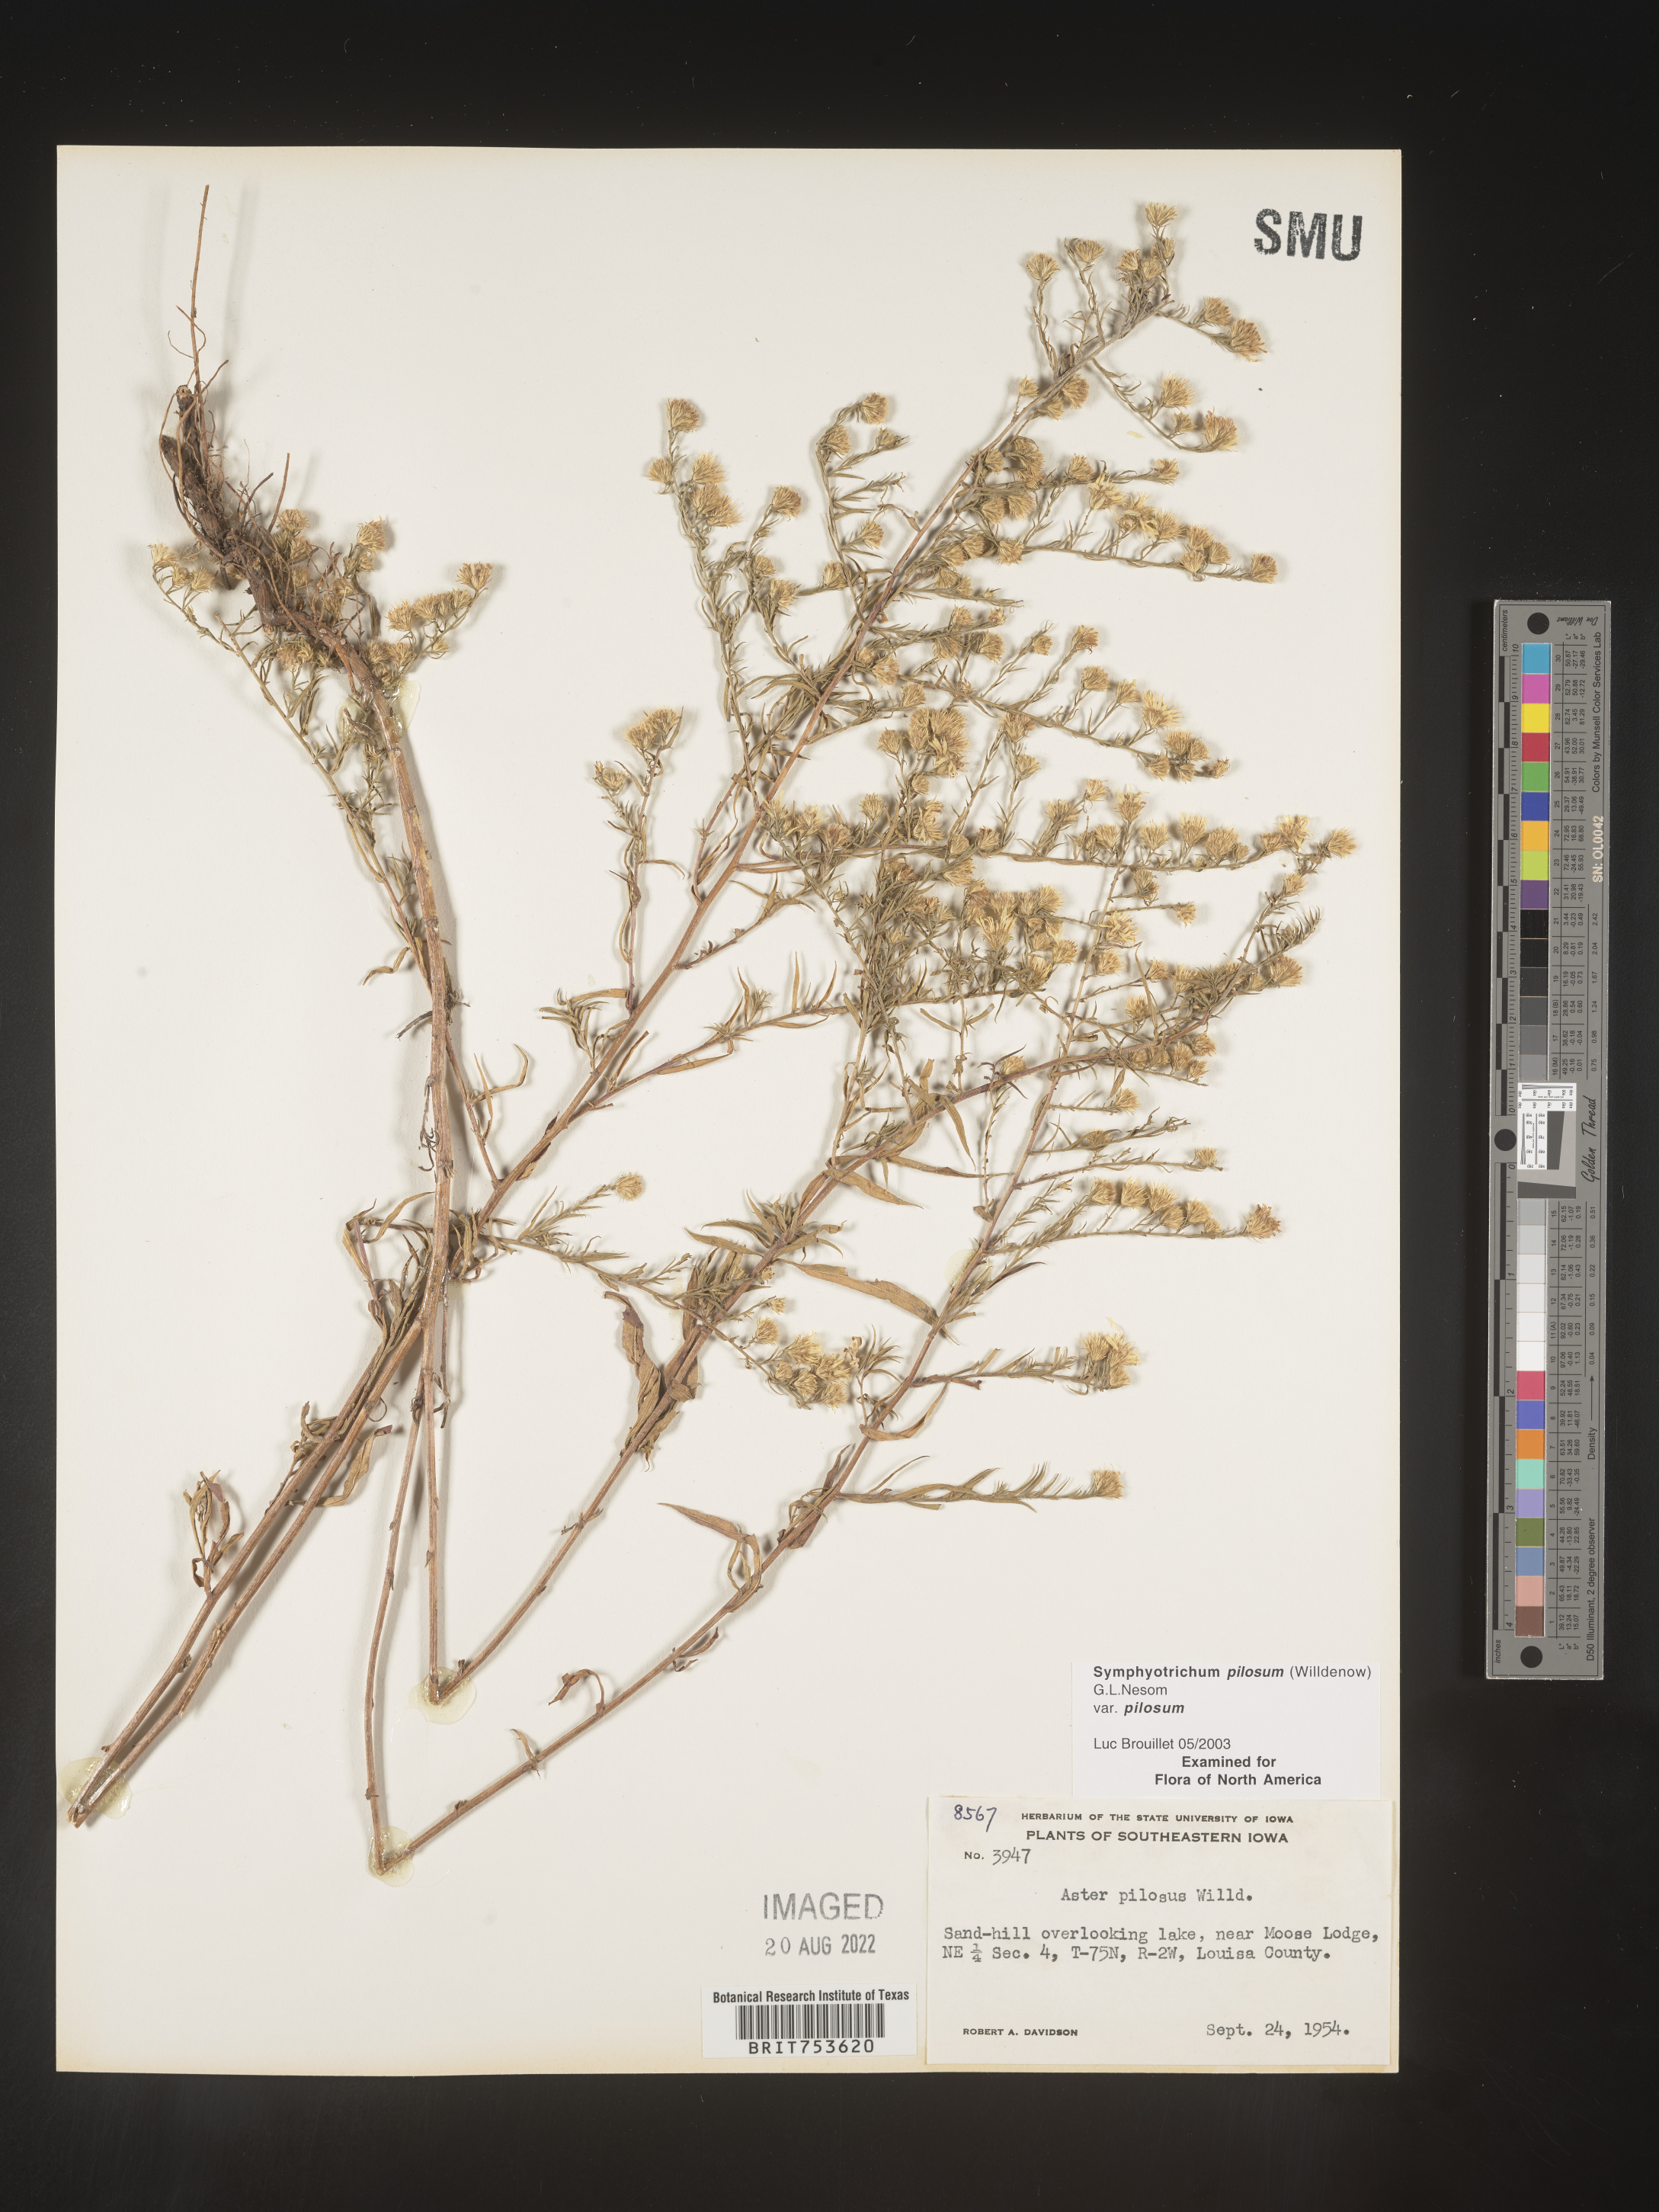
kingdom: Plantae
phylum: Tracheophyta
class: Magnoliopsida
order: Asterales
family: Asteraceae
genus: Symphyotrichum
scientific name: Symphyotrichum pilosum
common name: Awl aster
